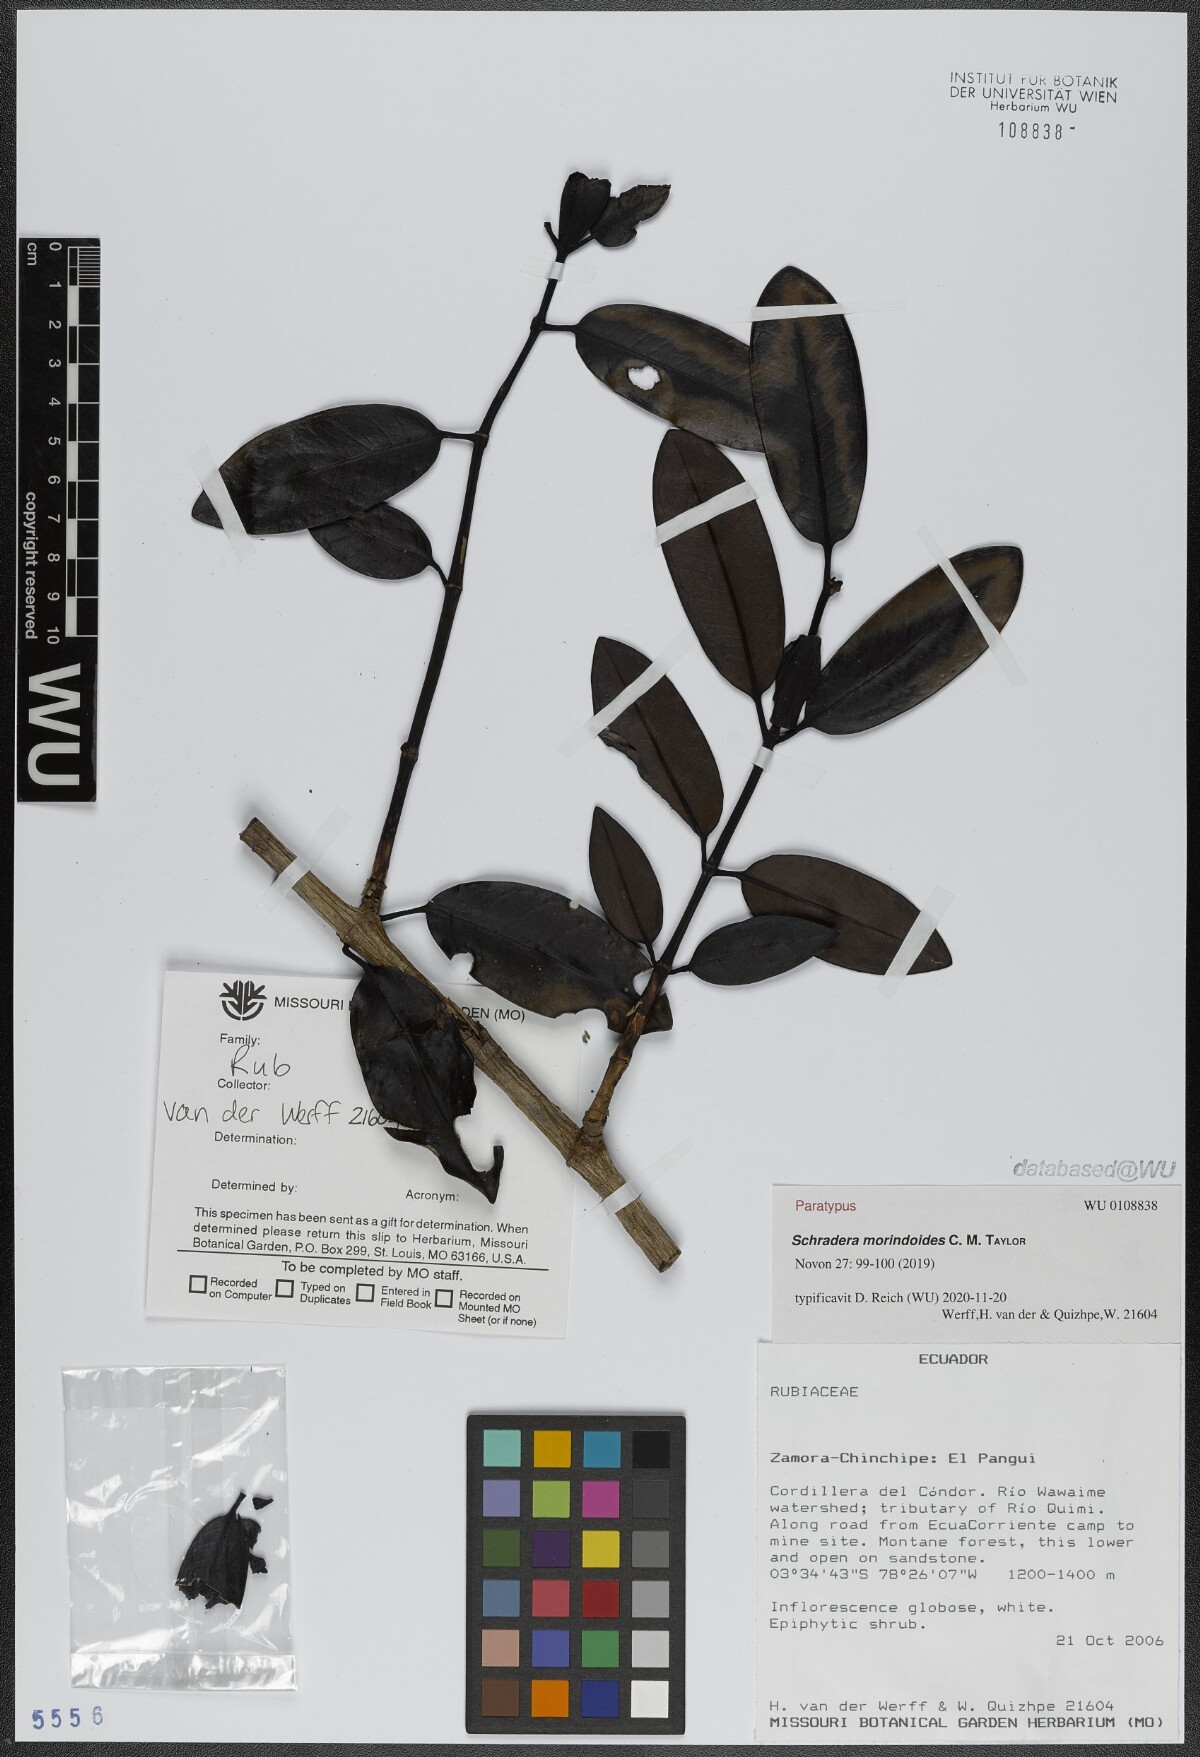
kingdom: Plantae
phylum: Tracheophyta
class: Magnoliopsida
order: Gentianales
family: Rubiaceae
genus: Schradera
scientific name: Schradera condorica
